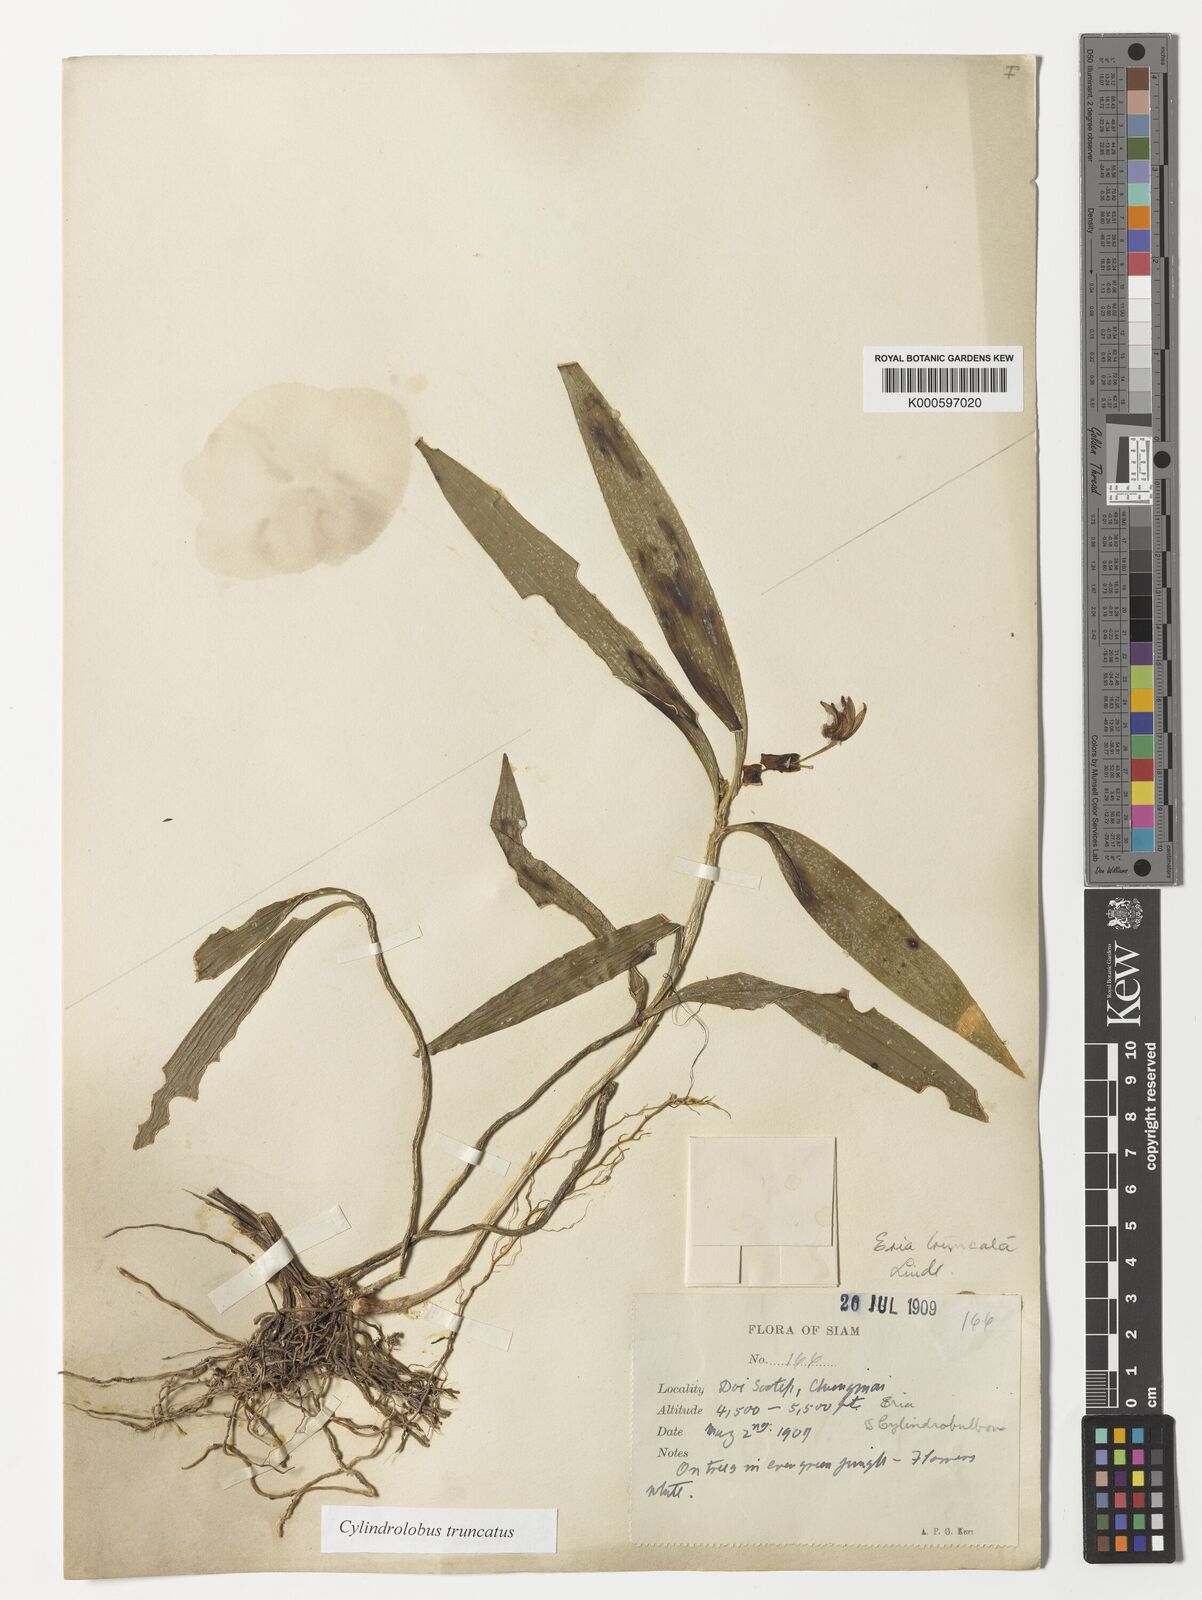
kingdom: Plantae
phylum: Tracheophyta
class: Liliopsida
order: Asparagales
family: Orchidaceae
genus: Cylindrolobus
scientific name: Cylindrolobus truncatus
